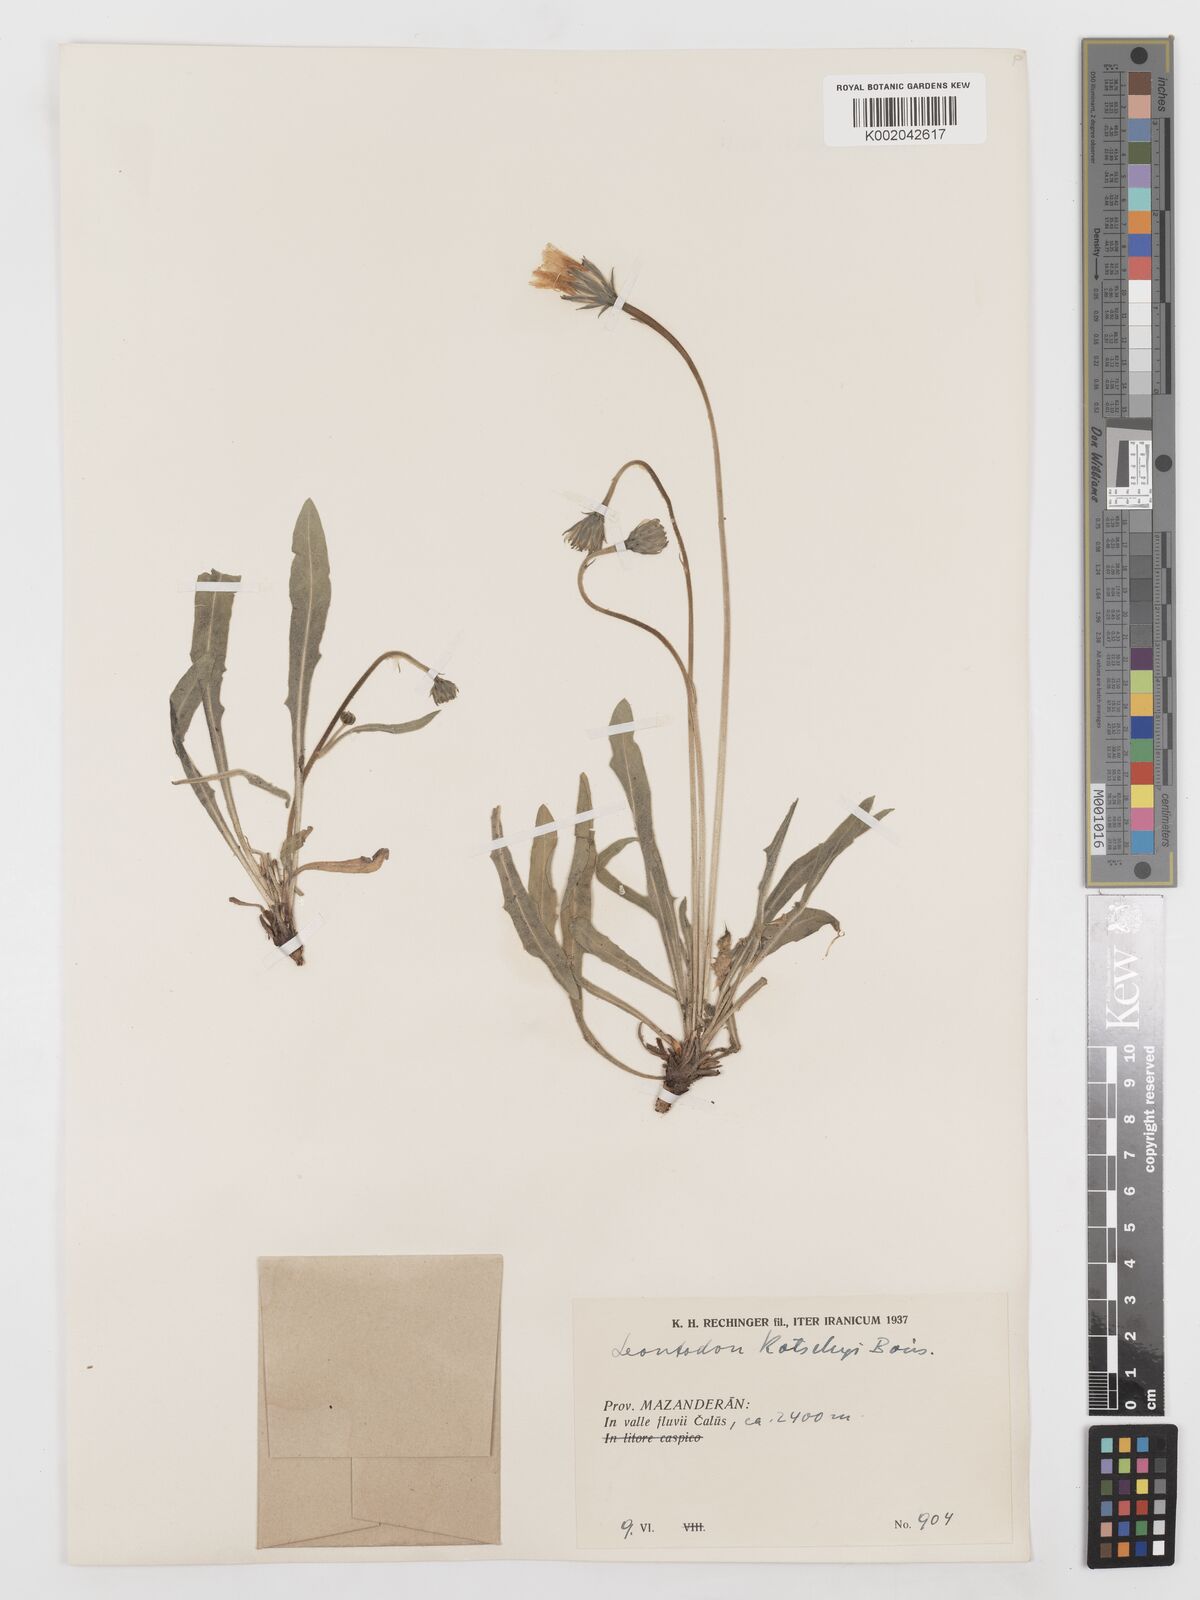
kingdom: Plantae
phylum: Tracheophyta
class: Magnoliopsida
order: Asterales
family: Asteraceae
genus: Leontodon
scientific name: Leontodon
